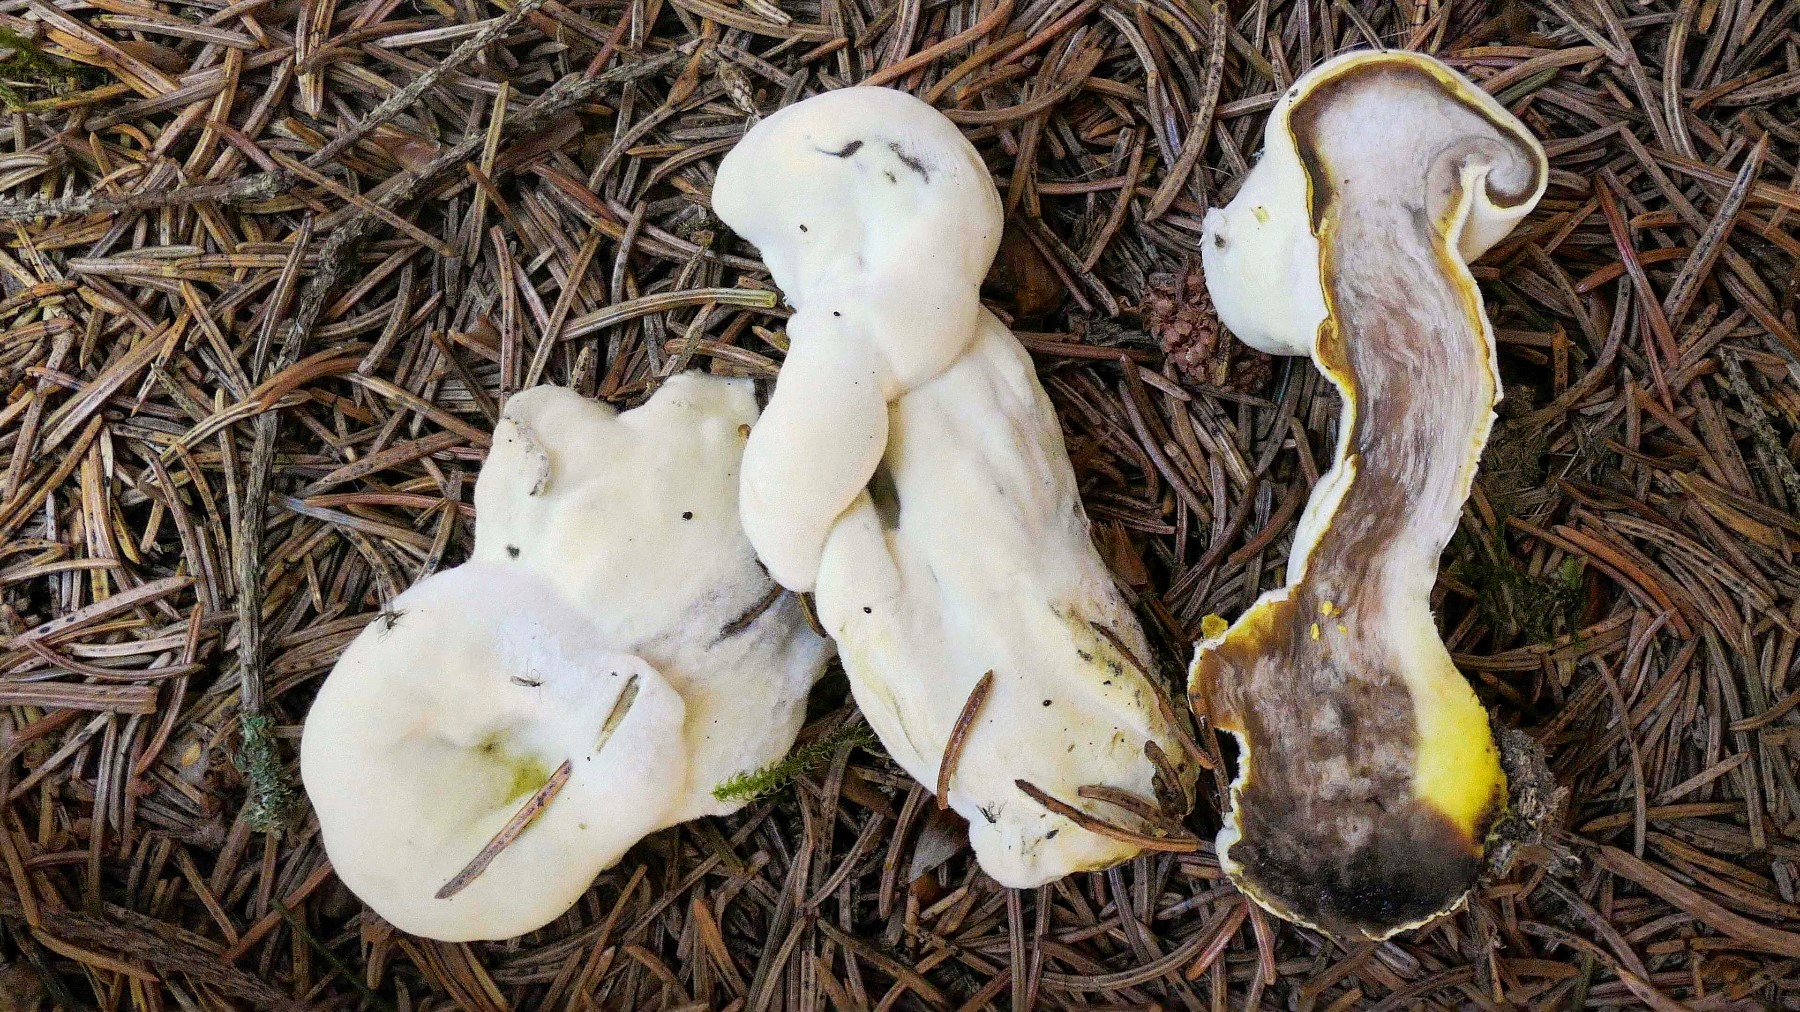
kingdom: Fungi
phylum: Ascomycota
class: Sordariomycetes
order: Hypocreales
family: Hypocreaceae
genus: Hypomyces
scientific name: Hypomyces
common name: snylteskorpe
